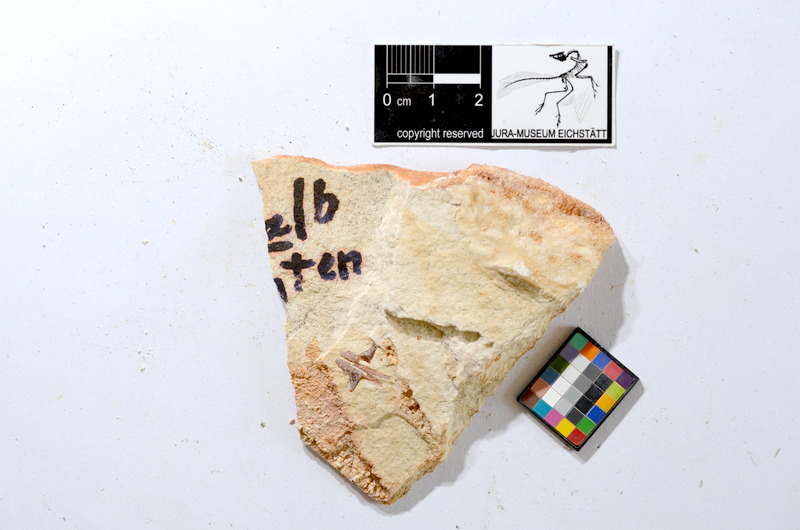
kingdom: Animalia
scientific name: Animalia
